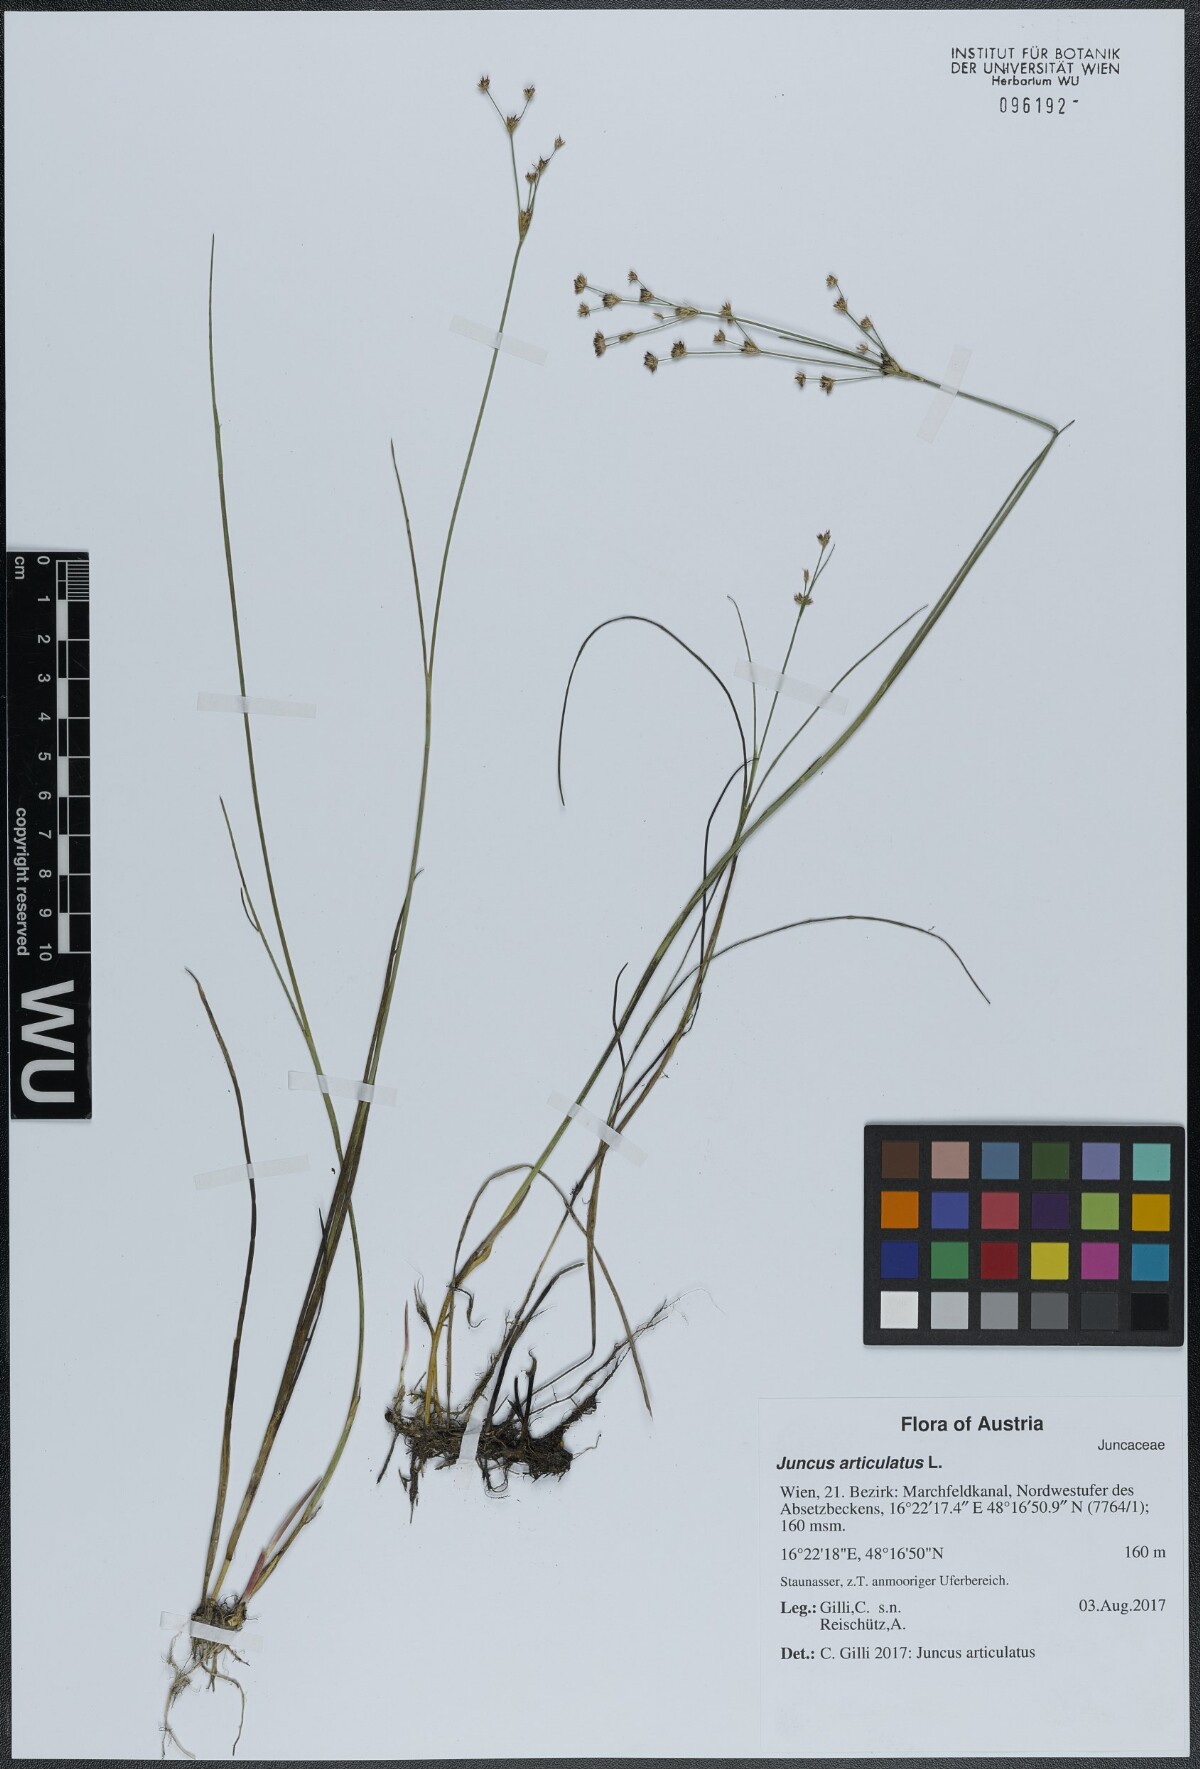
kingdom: Plantae
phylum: Tracheophyta
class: Liliopsida
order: Poales
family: Juncaceae
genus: Juncus
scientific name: Juncus articulatus
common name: Jointed rush
